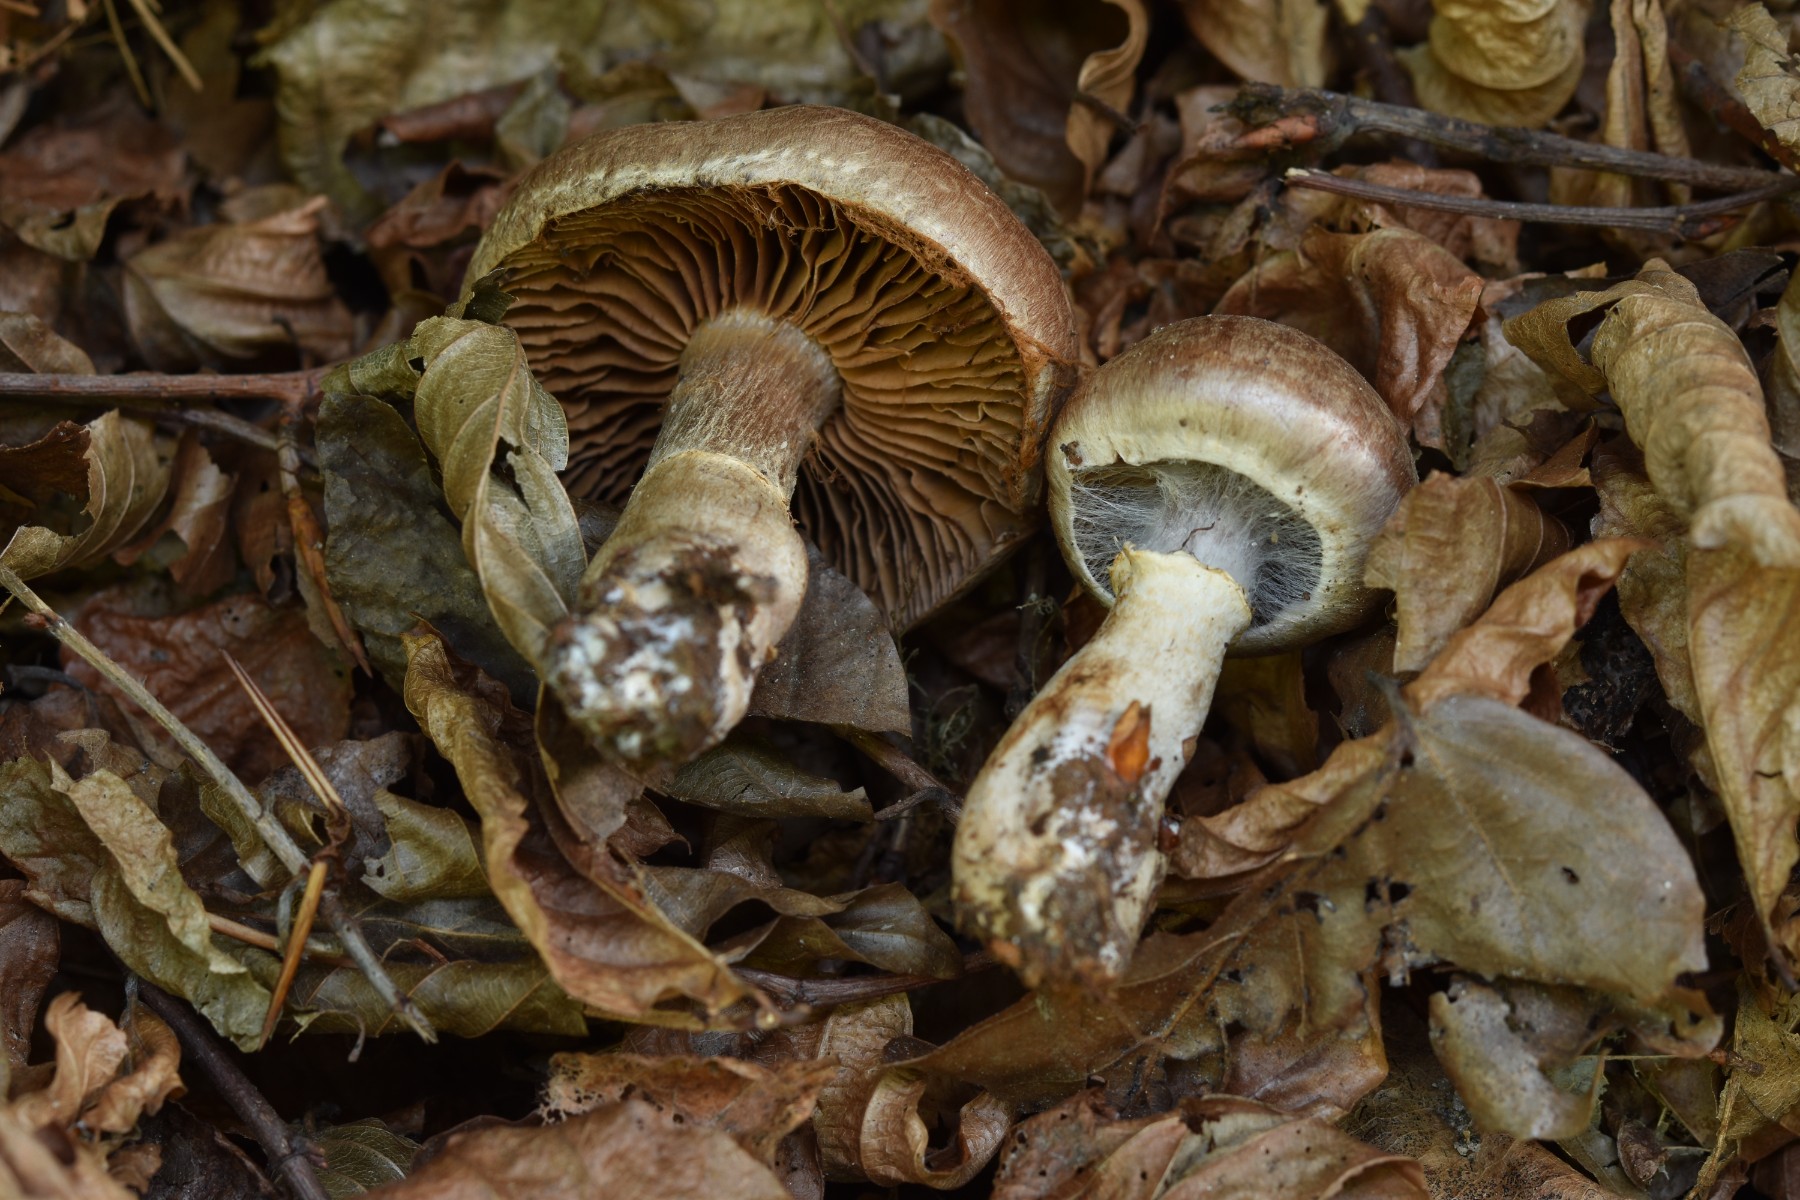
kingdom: Fungi
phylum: Basidiomycota
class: Agaricomycetes
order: Agaricales
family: Cortinariaceae
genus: Cortinarius
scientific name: Cortinarius torvus
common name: champignonagtig slørhat
